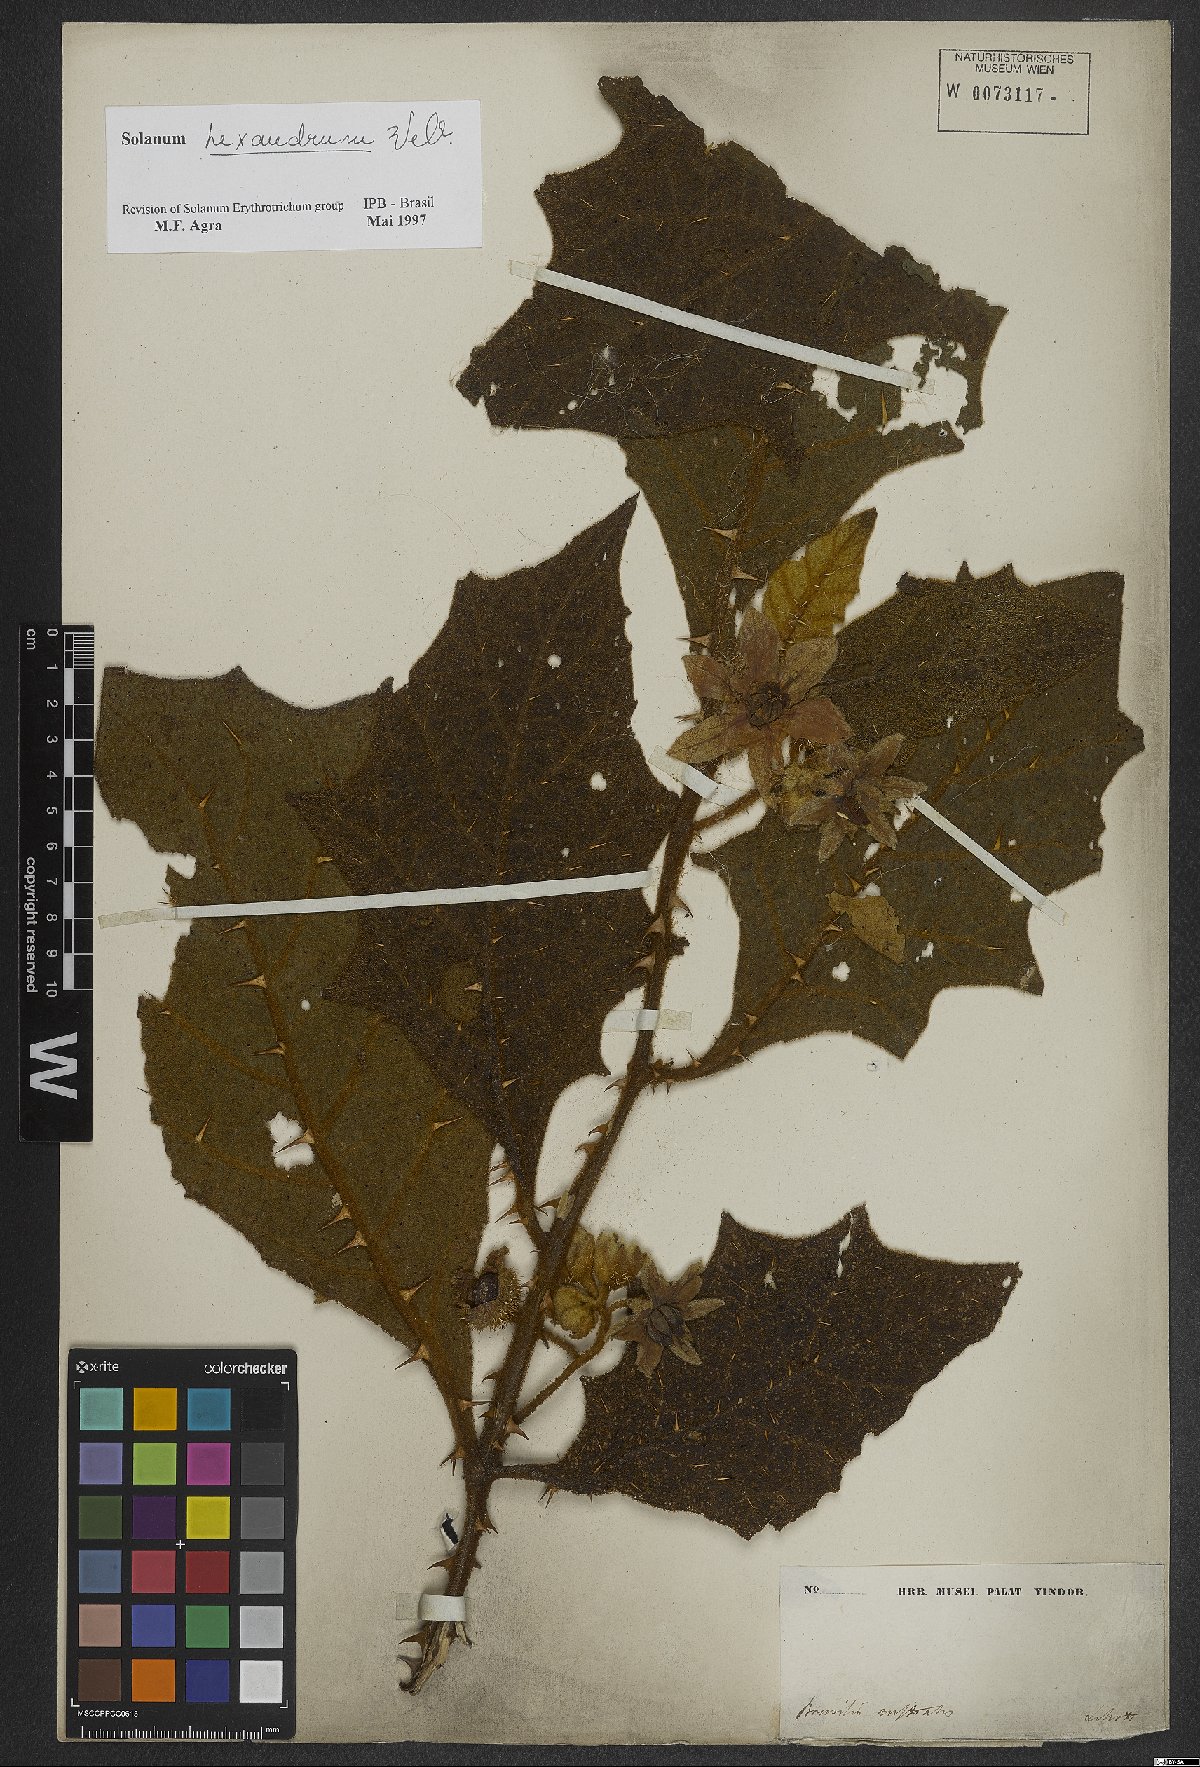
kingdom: Plantae
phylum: Tracheophyta
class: Magnoliopsida
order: Solanales
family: Solanaceae
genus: Solanum
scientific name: Solanum hexandrum
